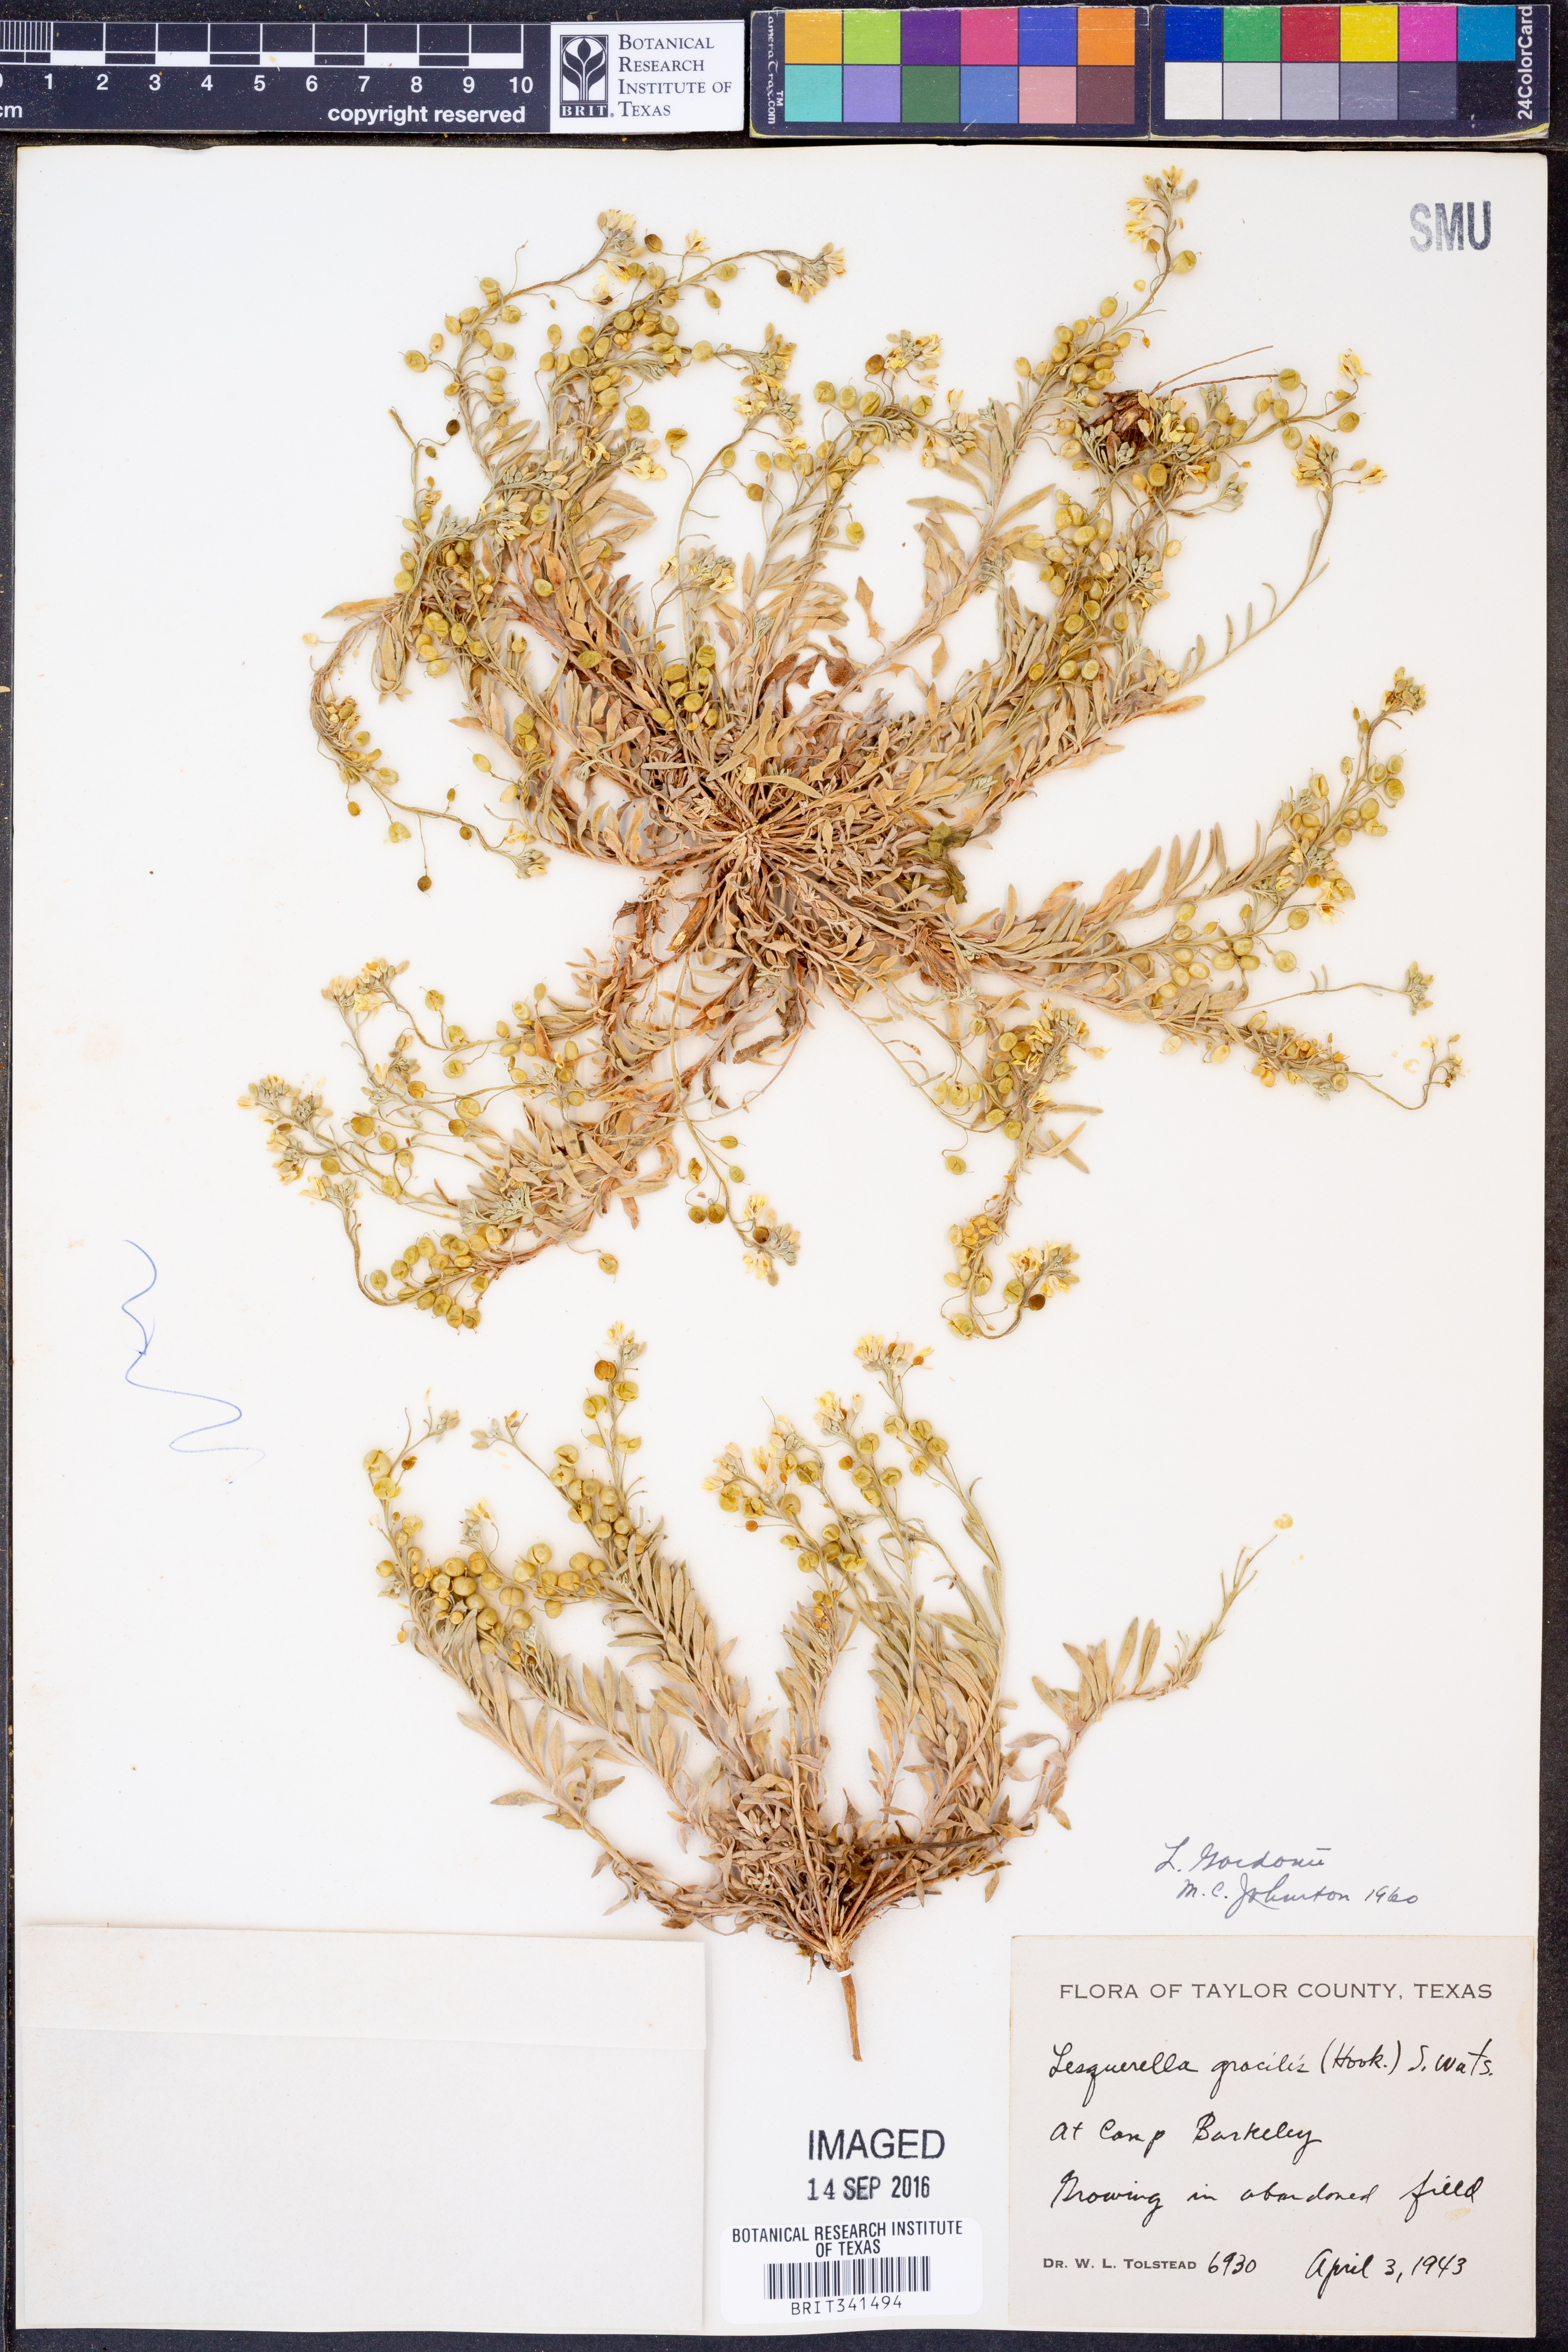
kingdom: Plantae
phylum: Tracheophyta
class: Magnoliopsida
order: Brassicales
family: Brassicaceae
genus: Physaria
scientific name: Physaria gordonii
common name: Gordon's bladderpod
